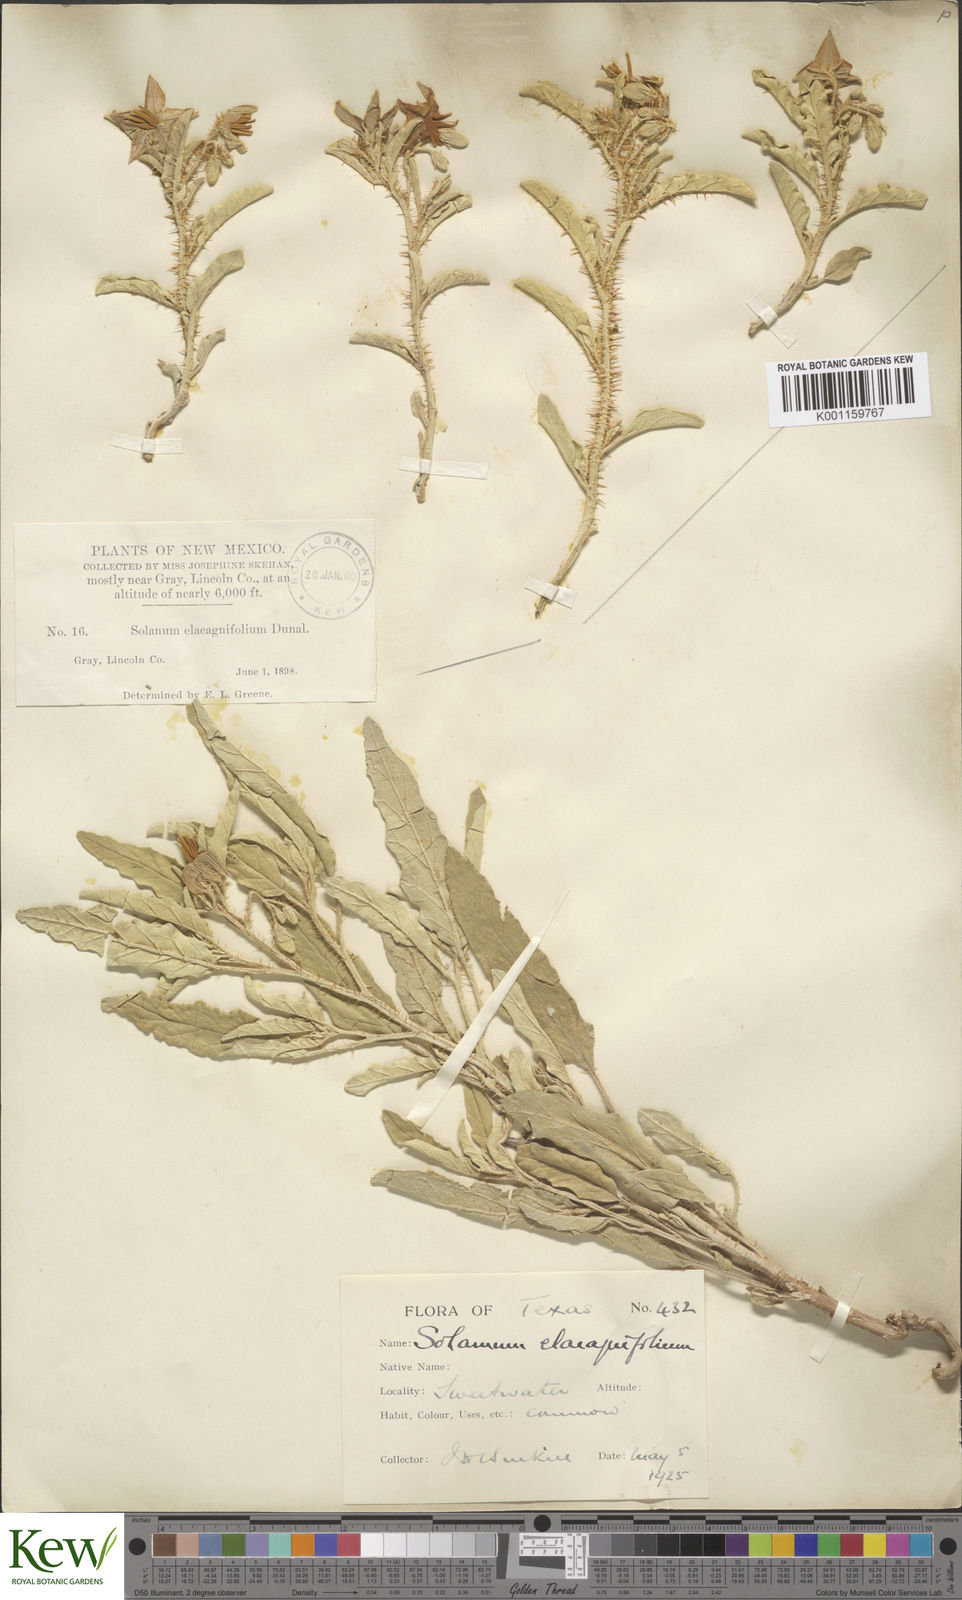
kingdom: Plantae
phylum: Tracheophyta
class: Magnoliopsida
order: Solanales
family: Solanaceae
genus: Solanum
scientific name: Solanum
